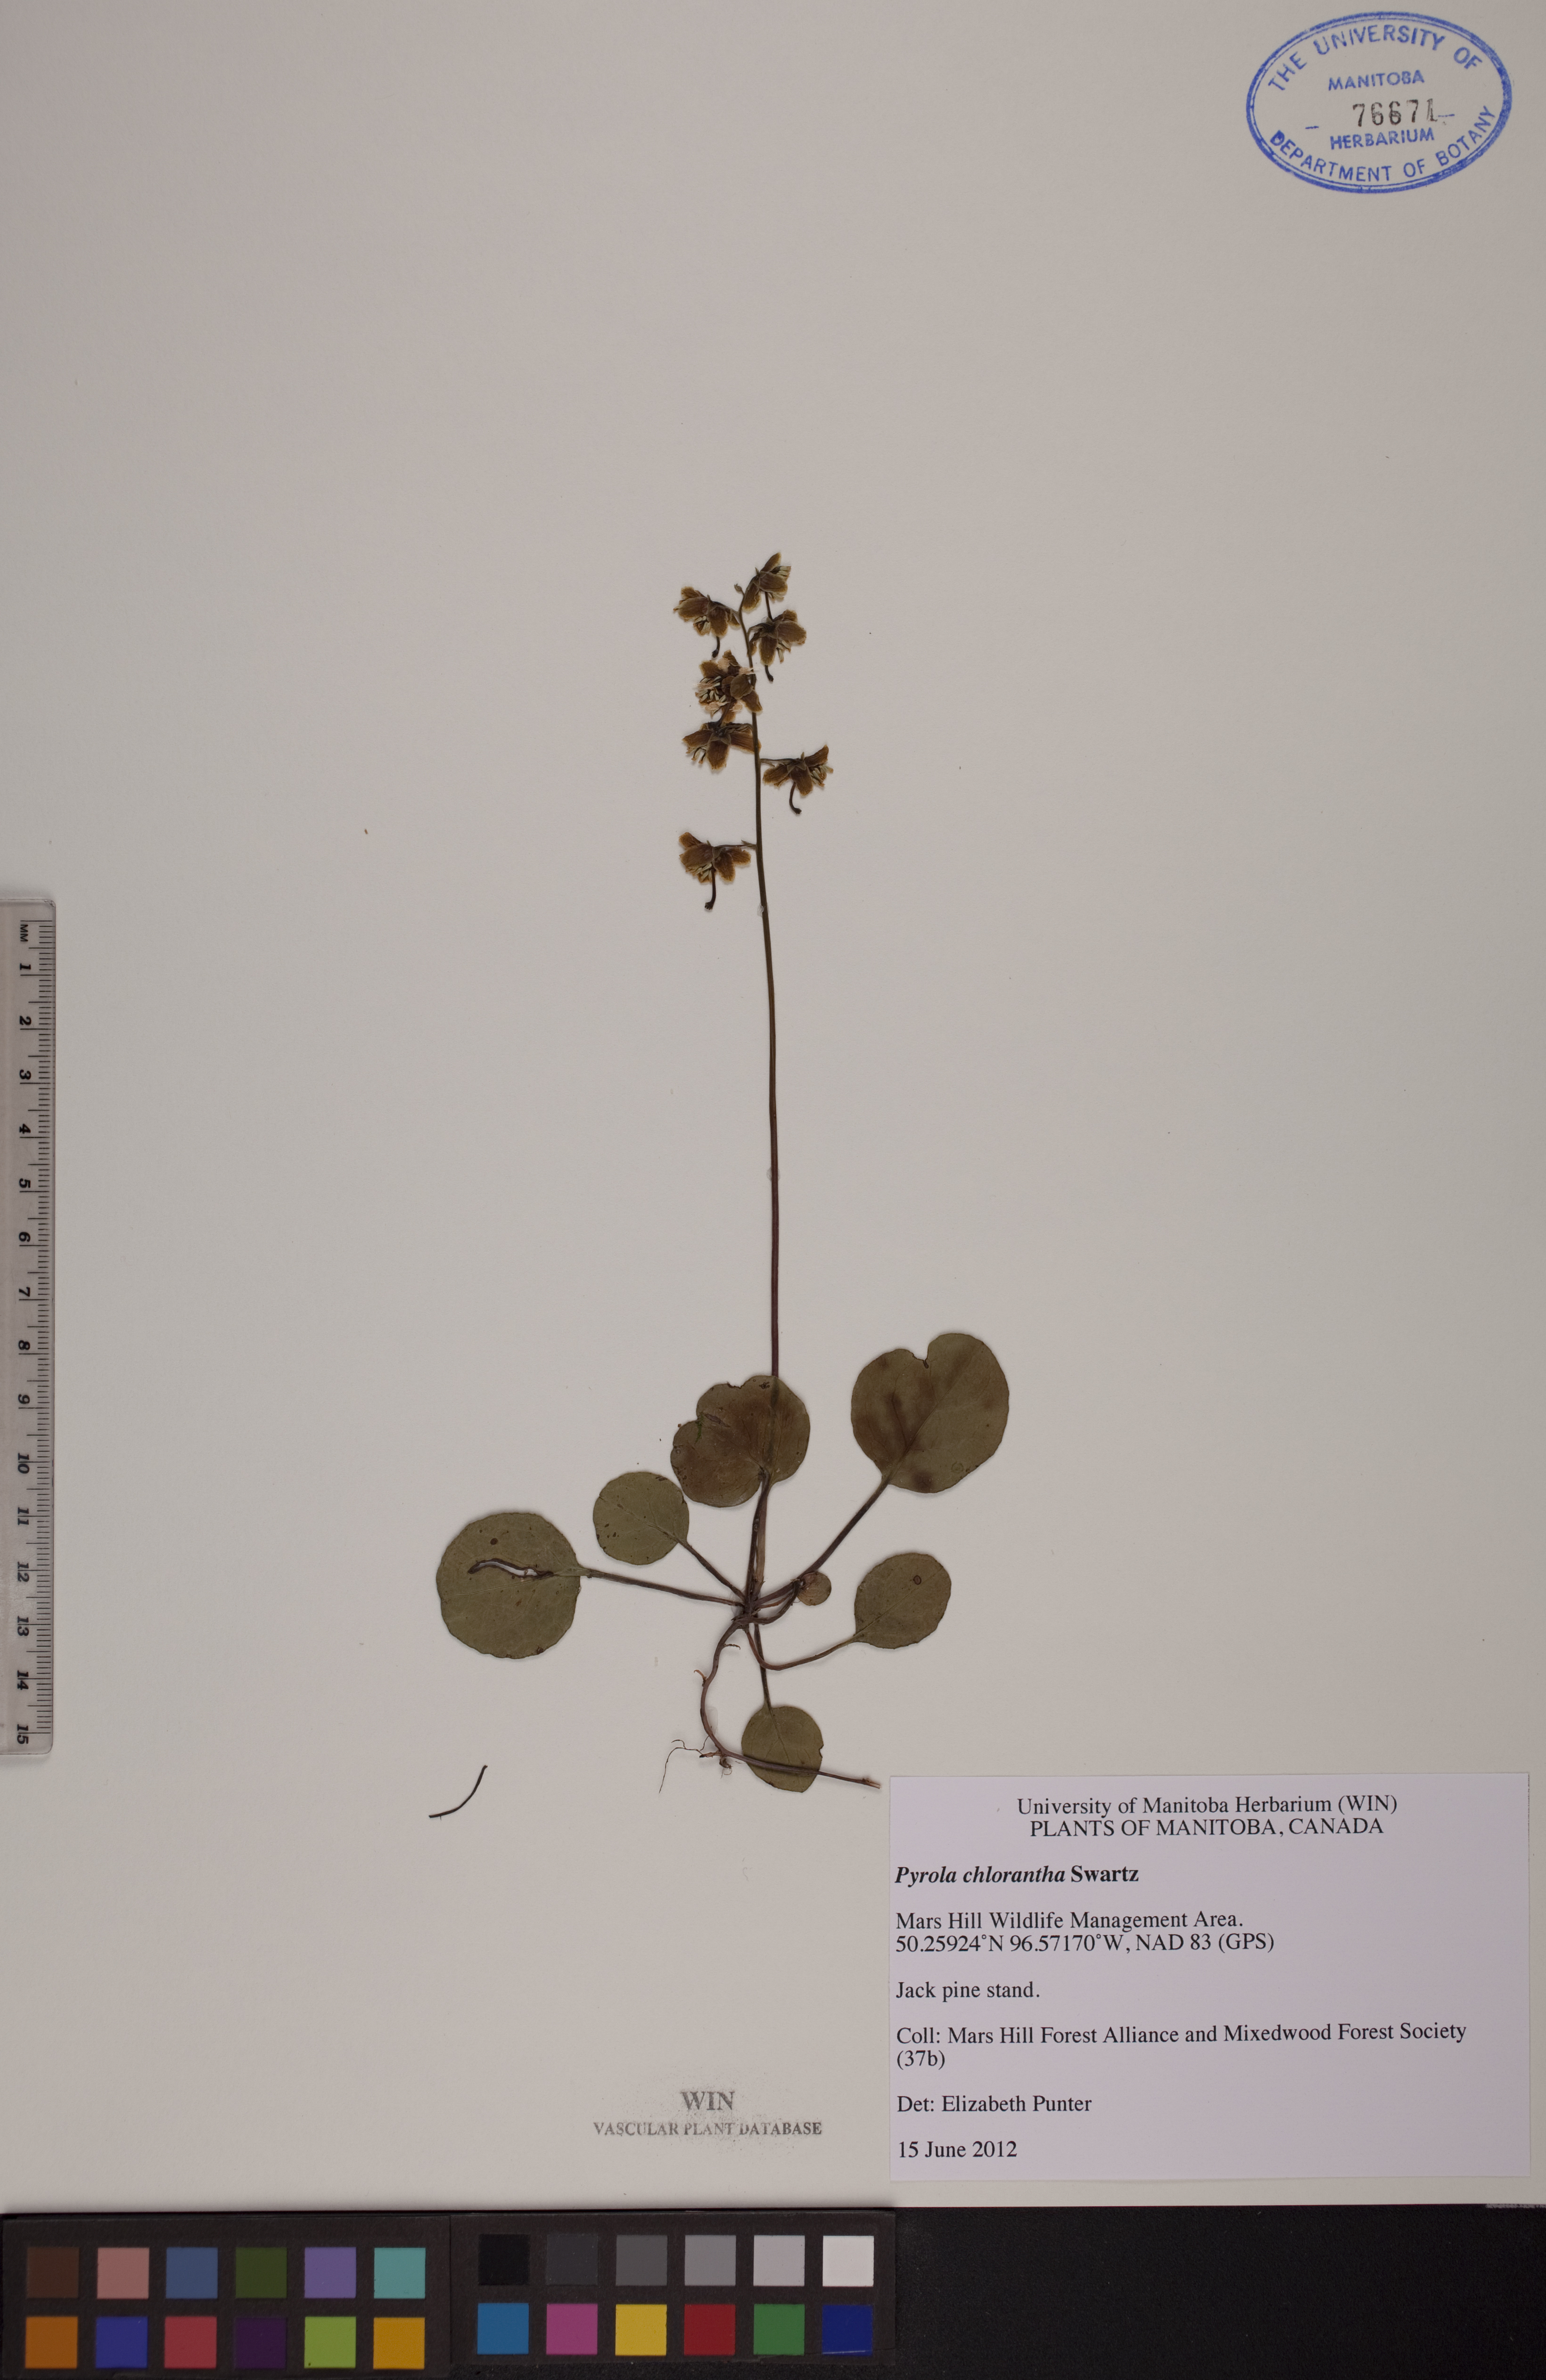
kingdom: Plantae
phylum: Tracheophyta
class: Magnoliopsida
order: Ericales
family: Ericaceae
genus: Pyrola
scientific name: Pyrola chlorantha
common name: Green wintergreen
